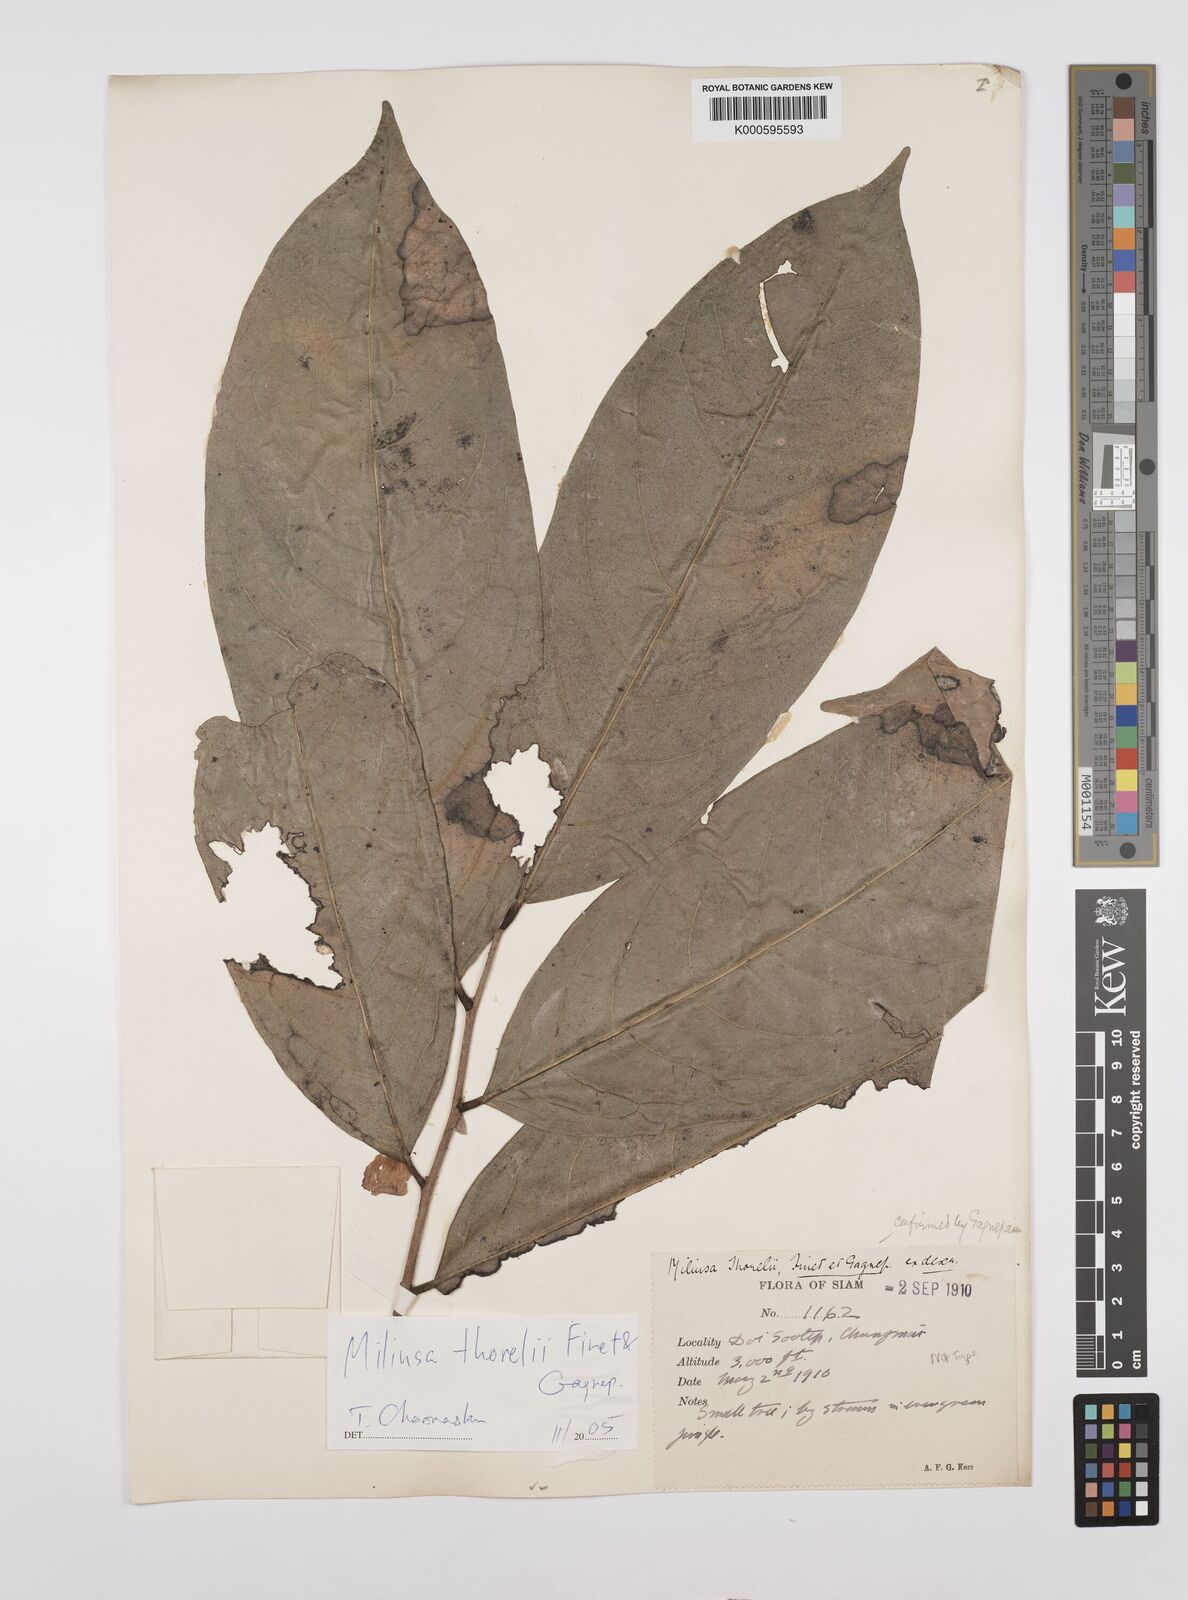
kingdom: Plantae
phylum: Tracheophyta
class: Magnoliopsida
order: Magnoliales
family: Annonaceae
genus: Miliusa
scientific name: Miliusa thorelii
